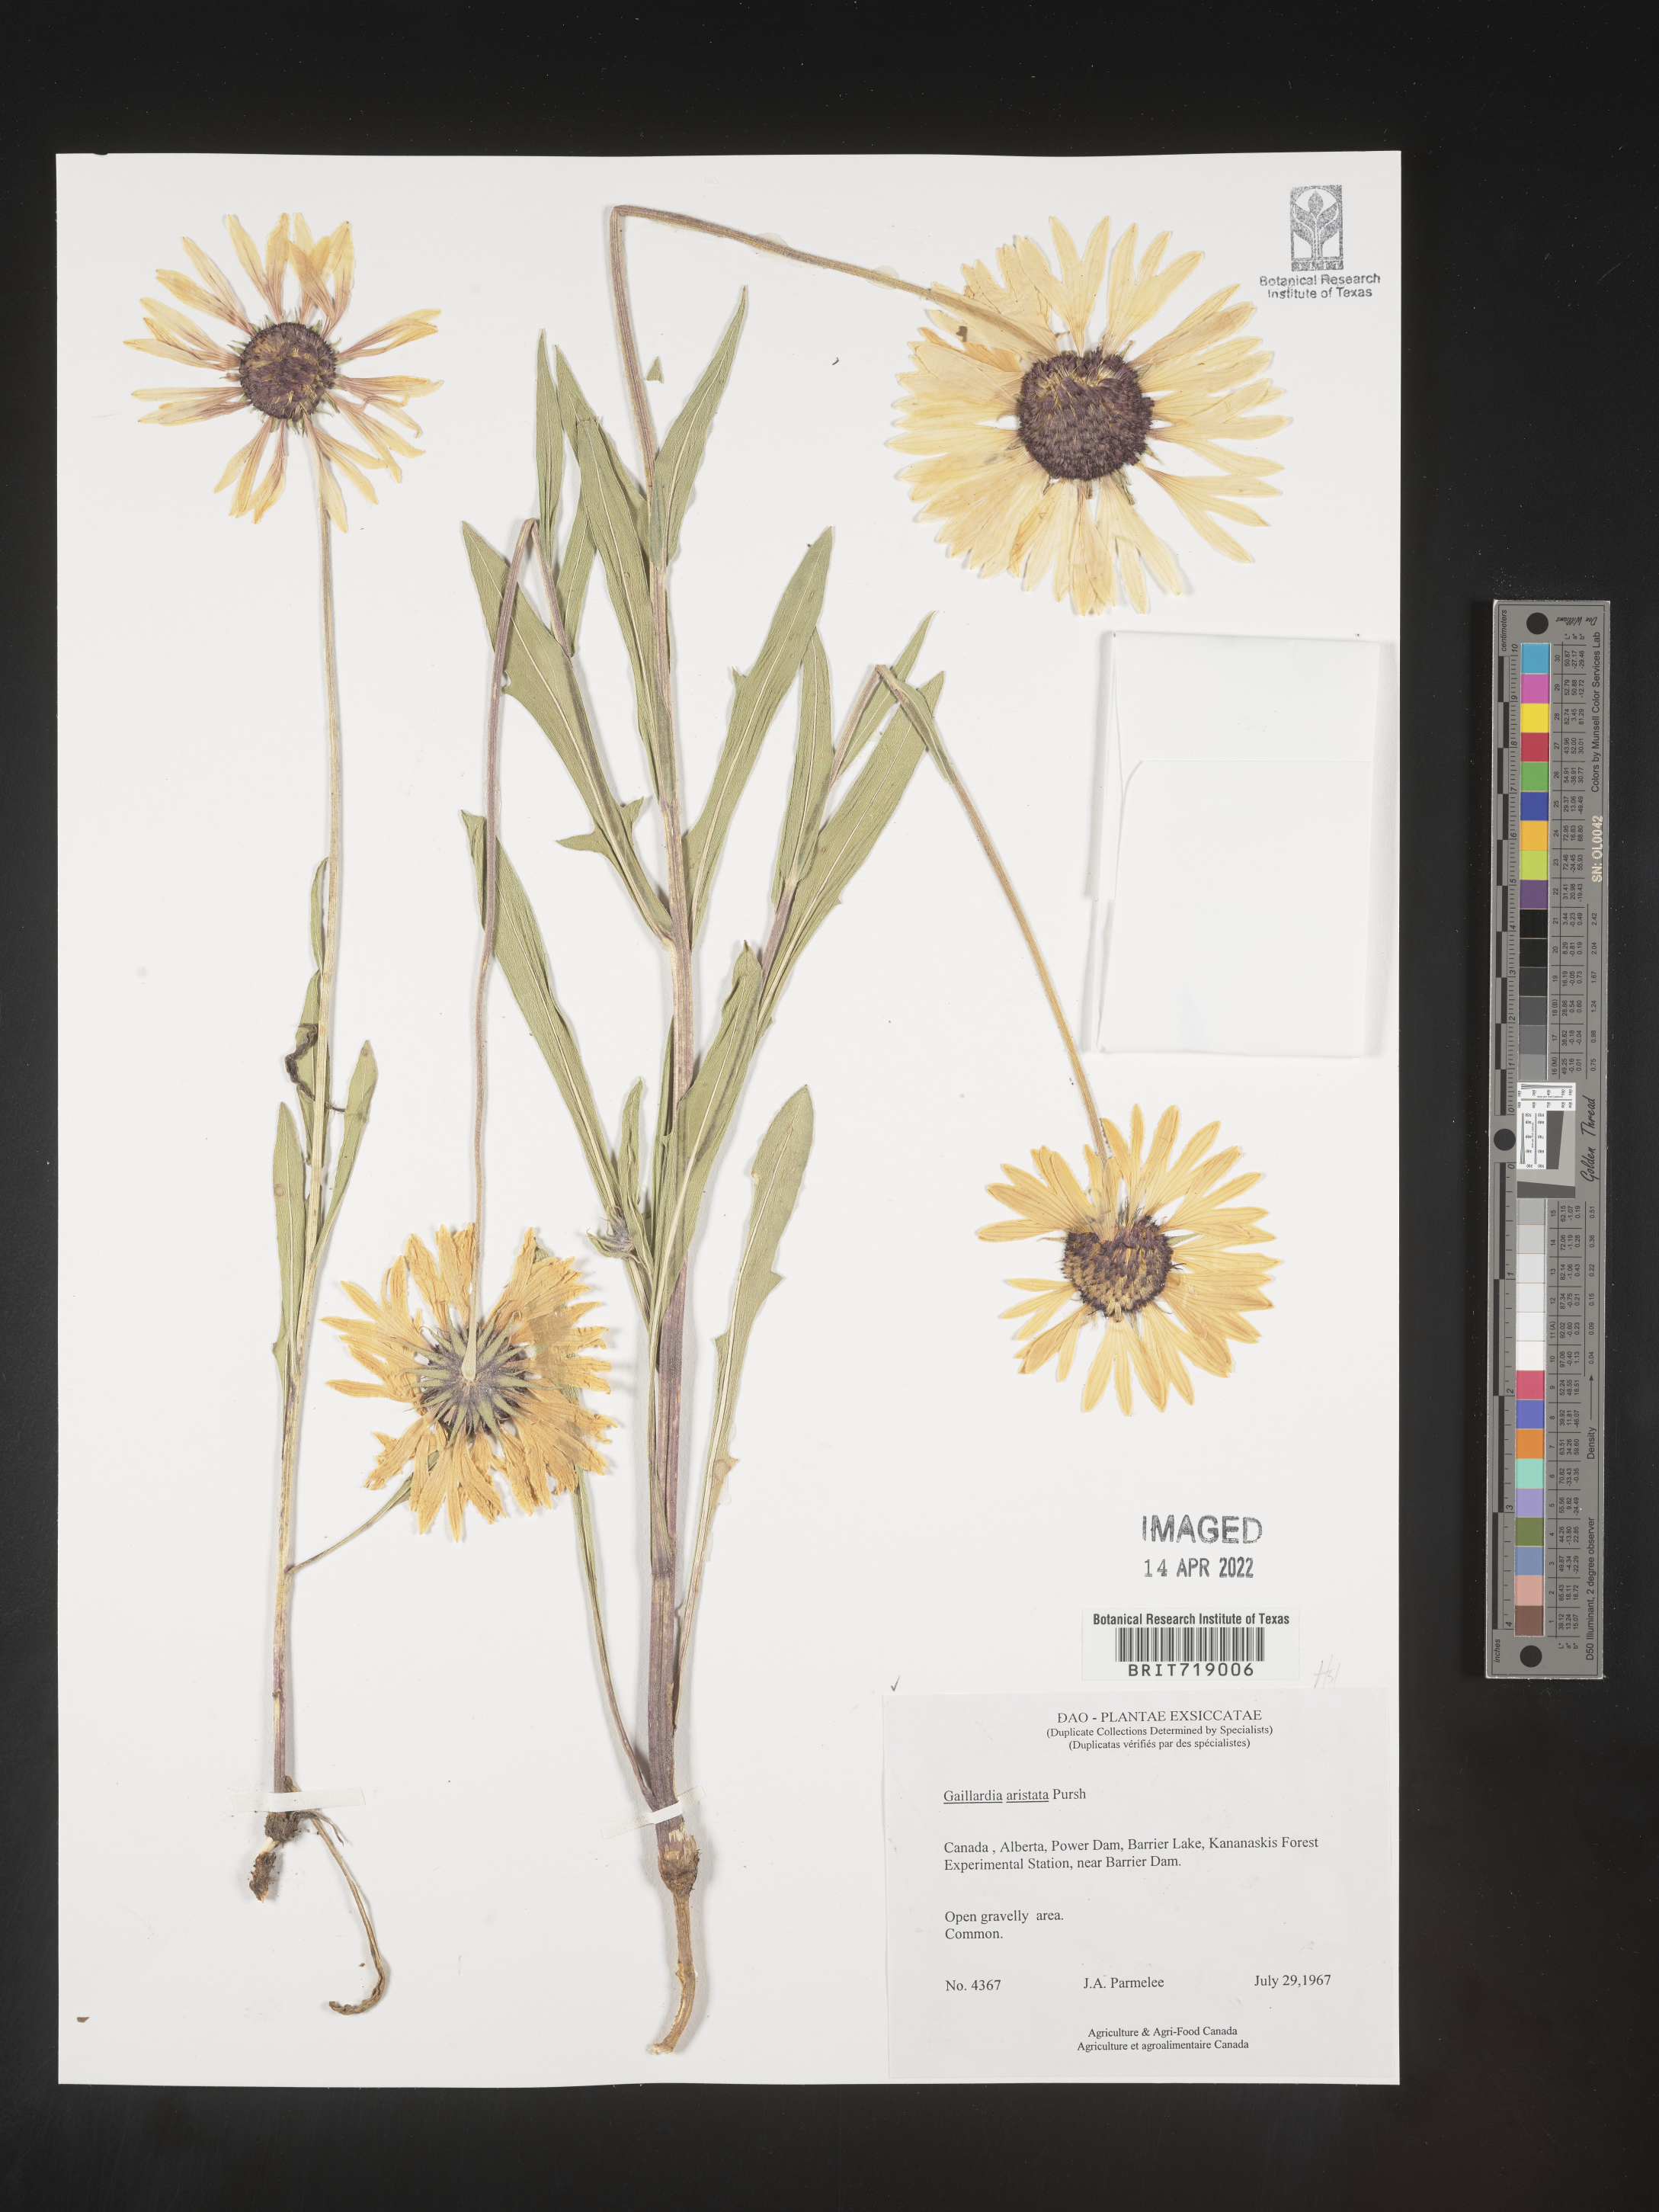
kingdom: Plantae
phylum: Tracheophyta
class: Magnoliopsida
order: Asterales
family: Asteraceae
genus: Gaillardia
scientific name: Gaillardia aristata
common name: Blanket-flower
